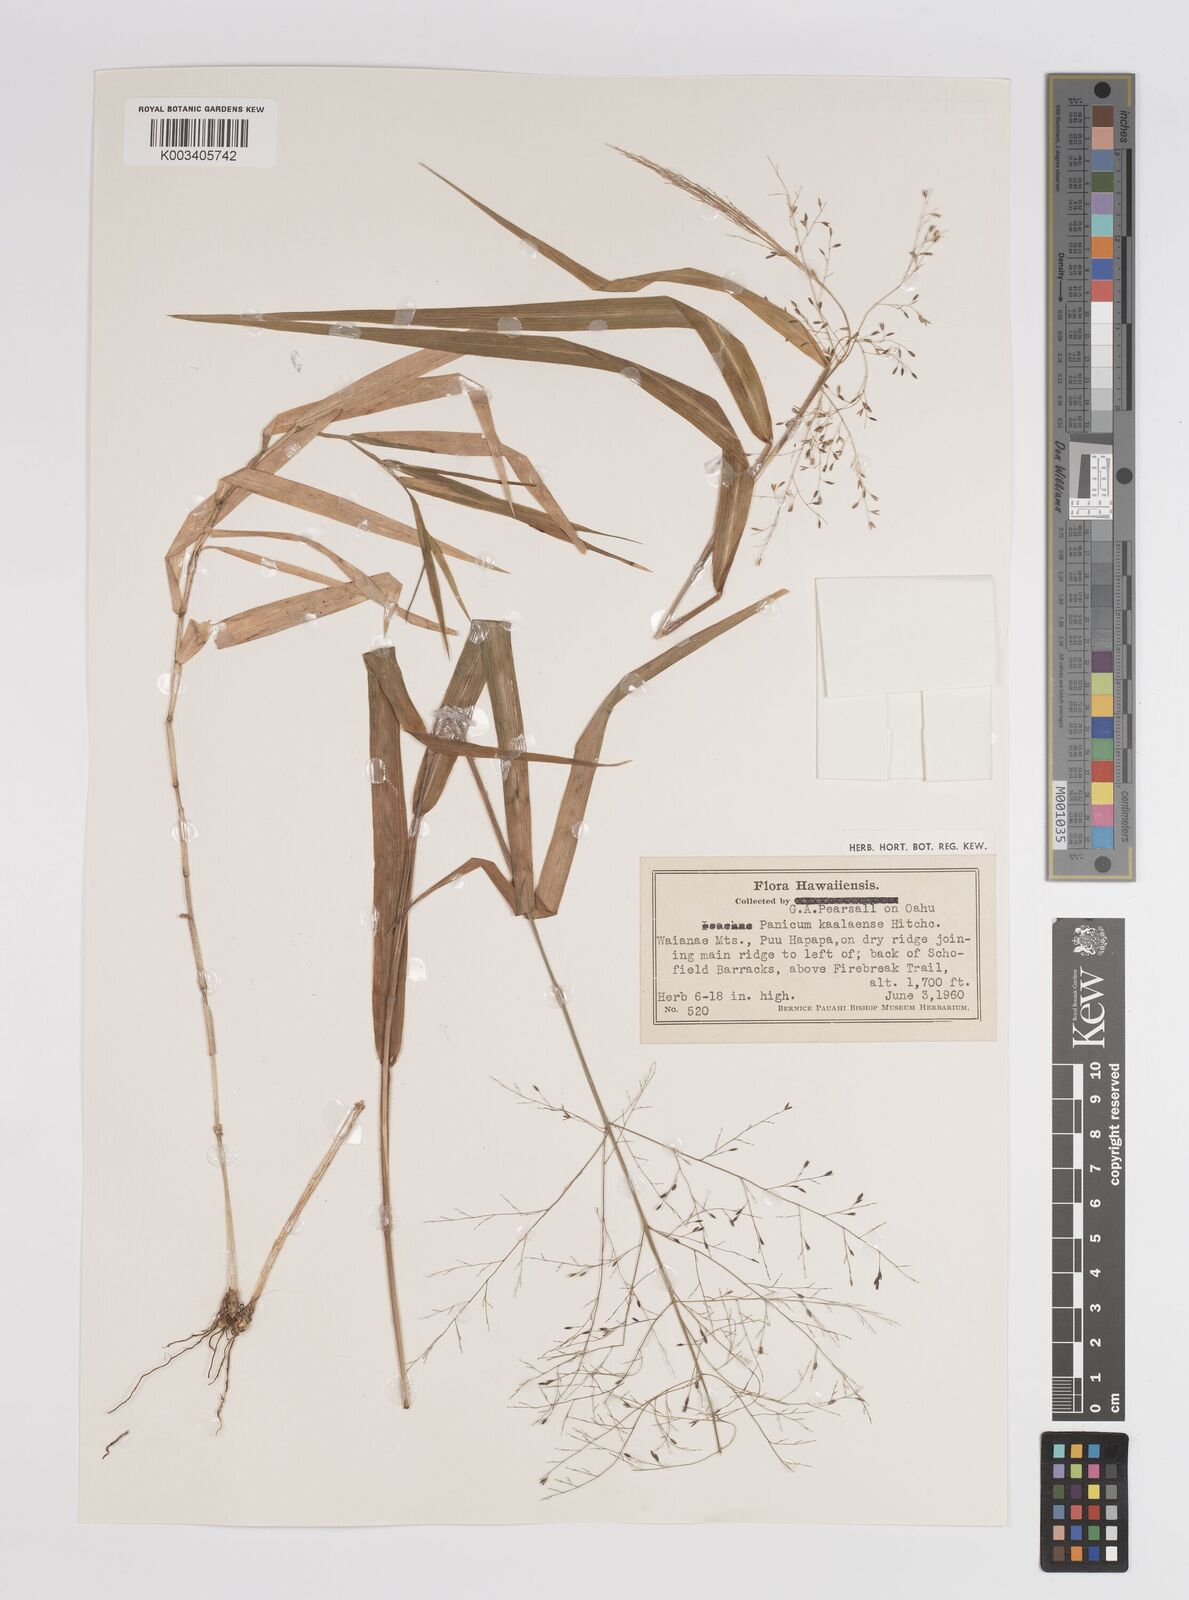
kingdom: Plantae
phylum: Tracheophyta
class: Liliopsida
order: Poales
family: Poaceae
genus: Panicum
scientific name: Panicum nephelophilum
